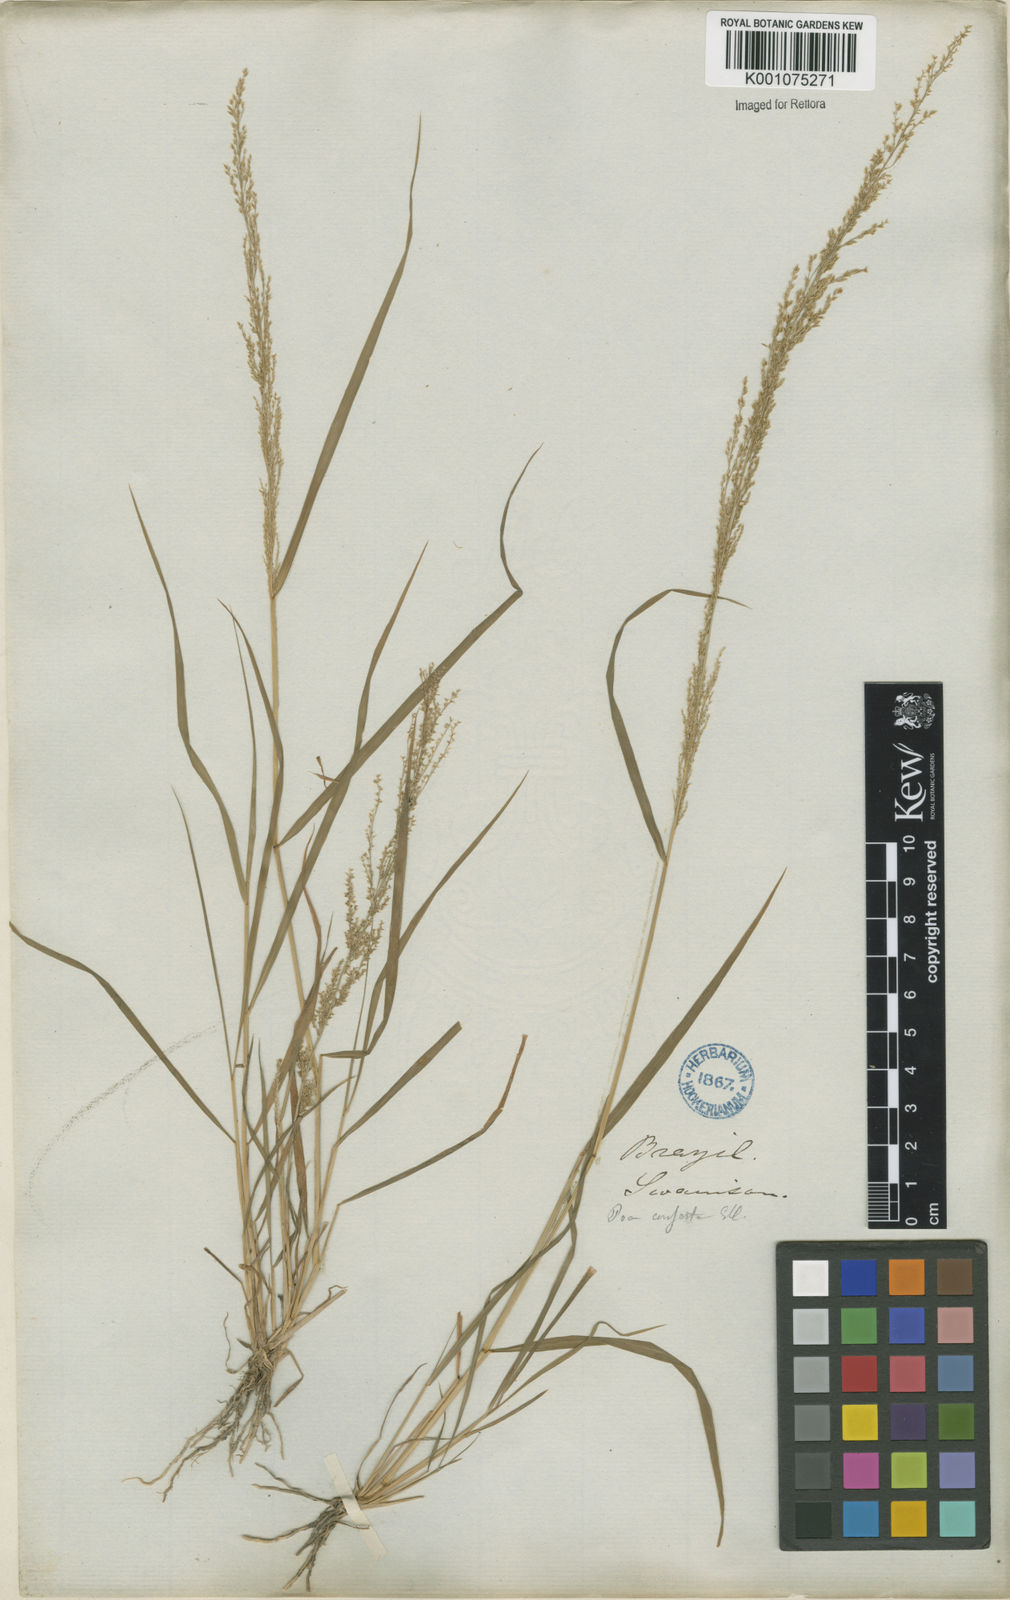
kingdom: Plantae
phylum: Tracheophyta
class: Liliopsida
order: Poales
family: Poaceae
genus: Eragrostis
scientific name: Eragrostis japonica
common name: Pond lovegrass
